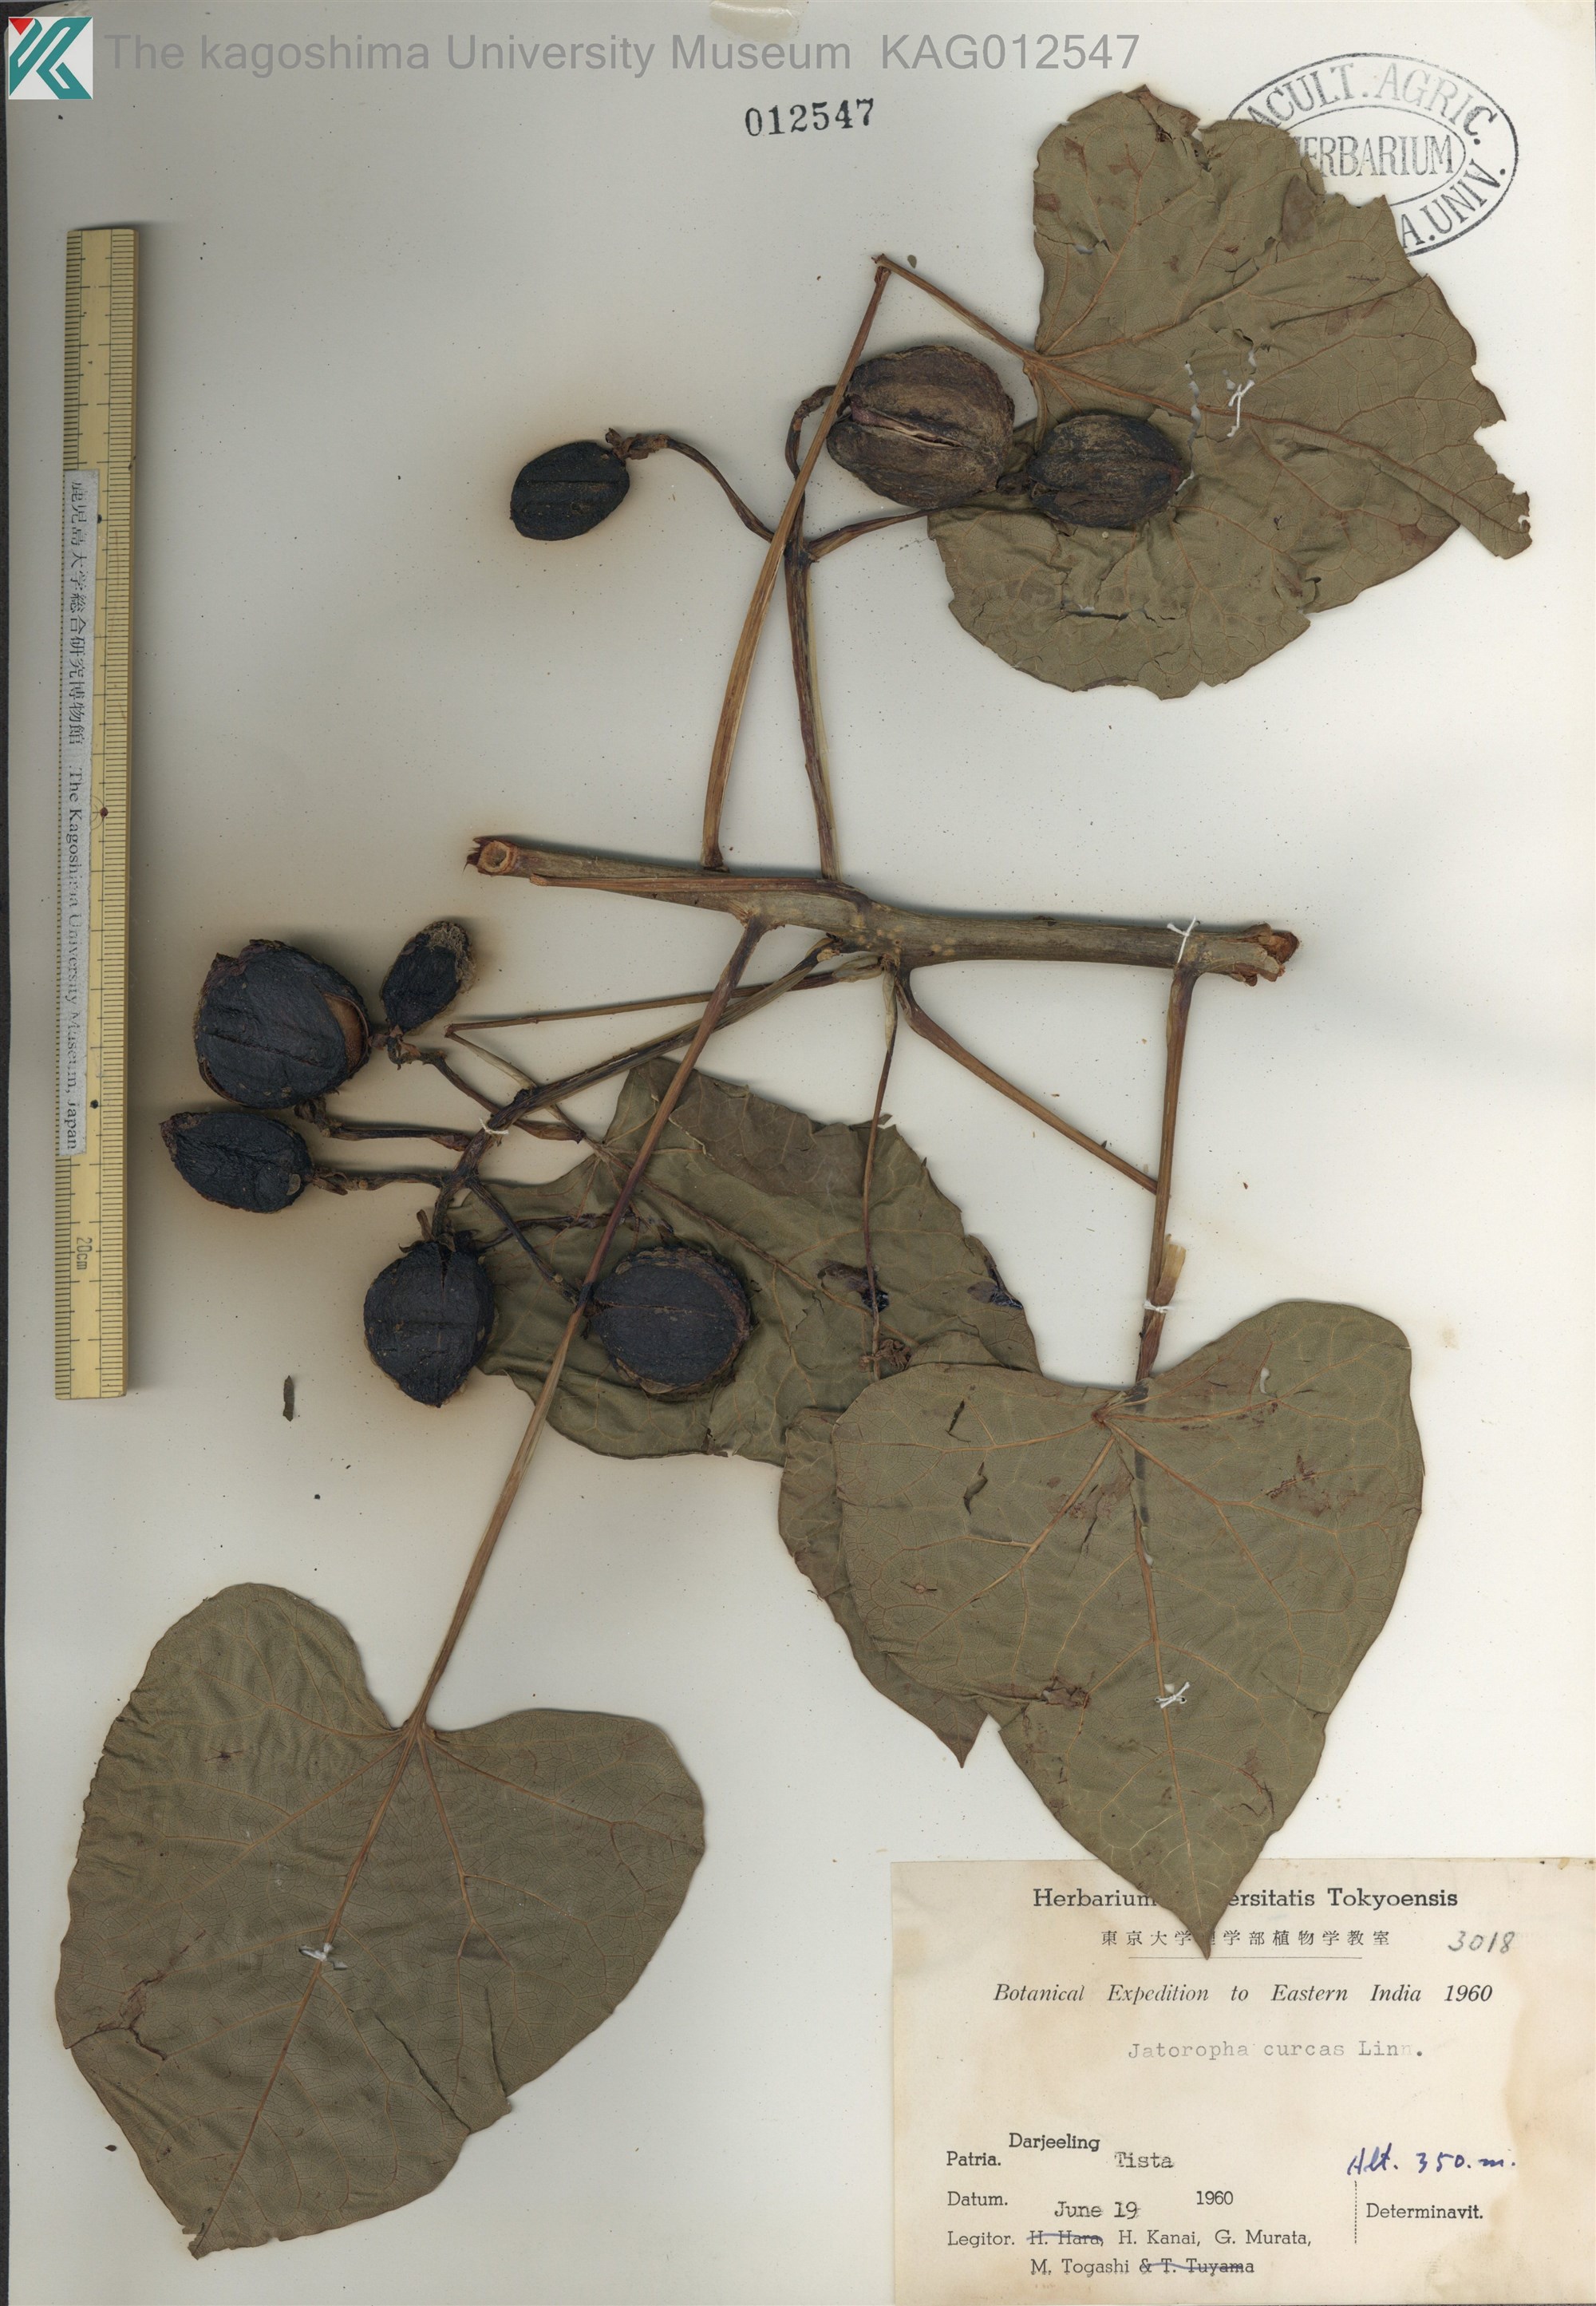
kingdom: Plantae
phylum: Tracheophyta
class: Magnoliopsida
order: Malpighiales
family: Euphorbiaceae
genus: Jatropha
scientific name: Jatropha curcas
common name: Barbados nut
